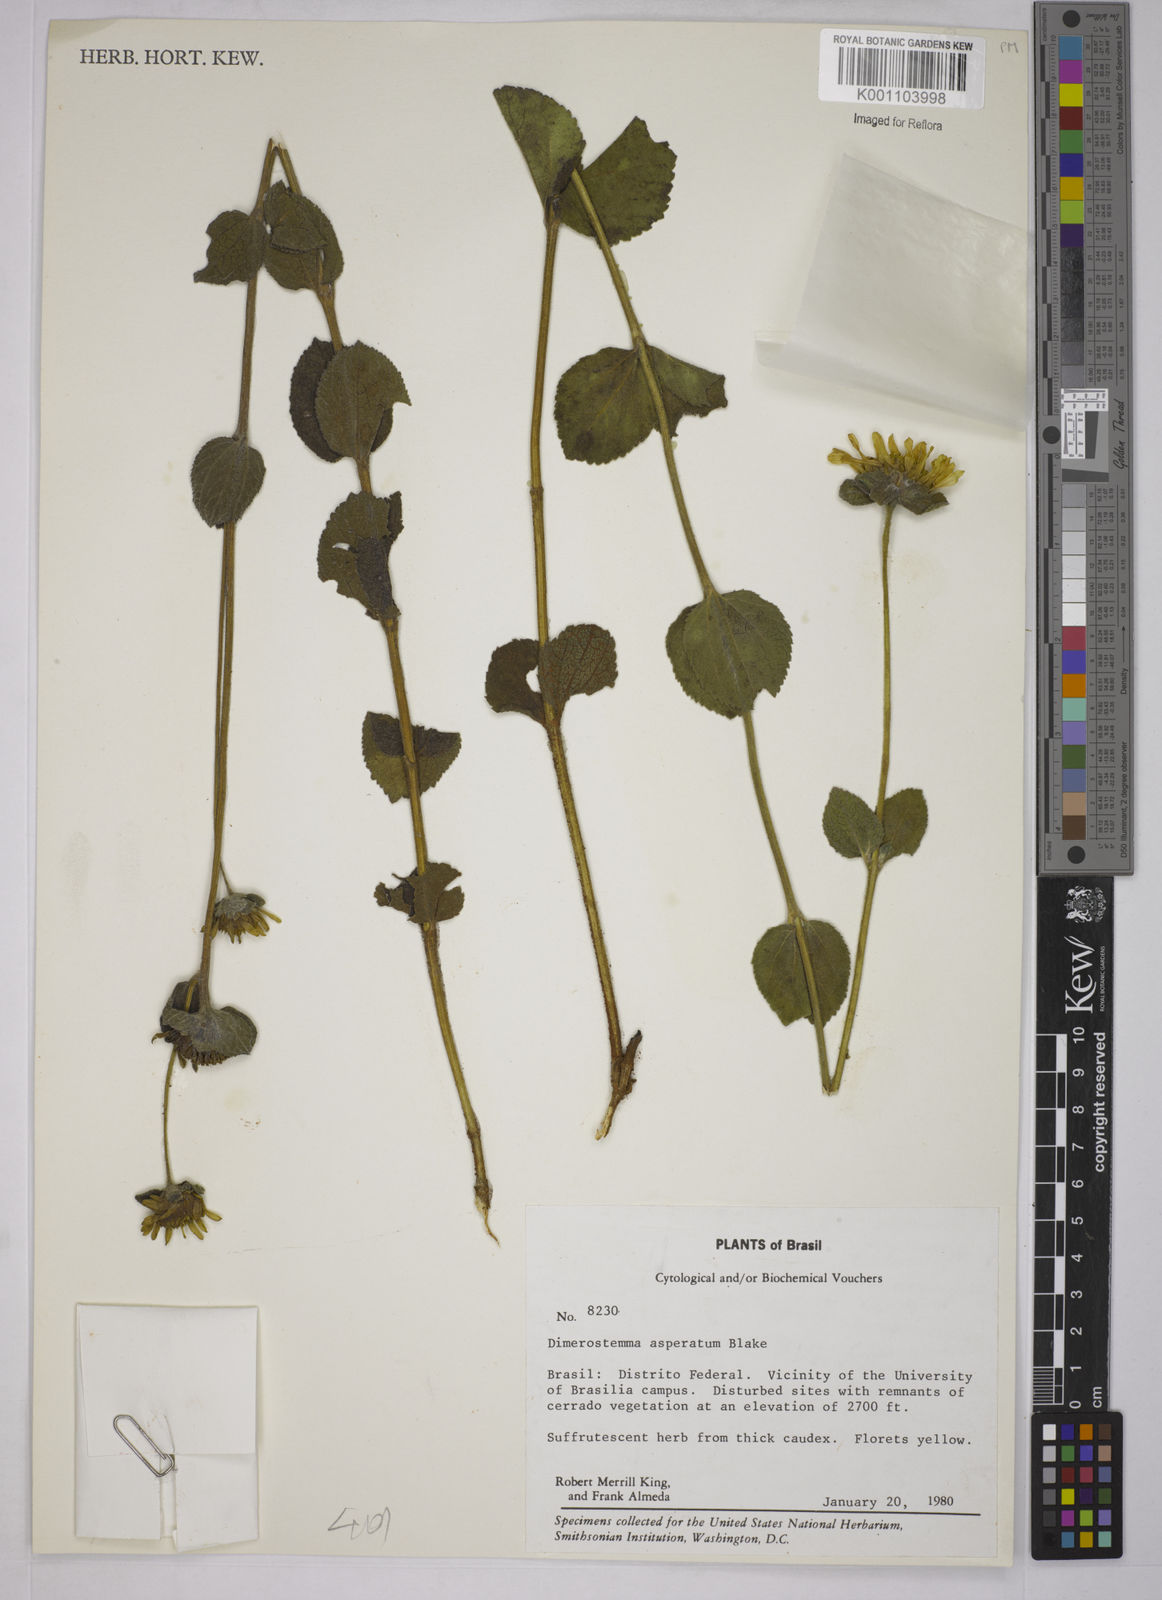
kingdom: Plantae
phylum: Tracheophyta
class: Magnoliopsida
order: Asterales
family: Asteraceae
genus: Dimerostemma
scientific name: Dimerostemma asperatum
